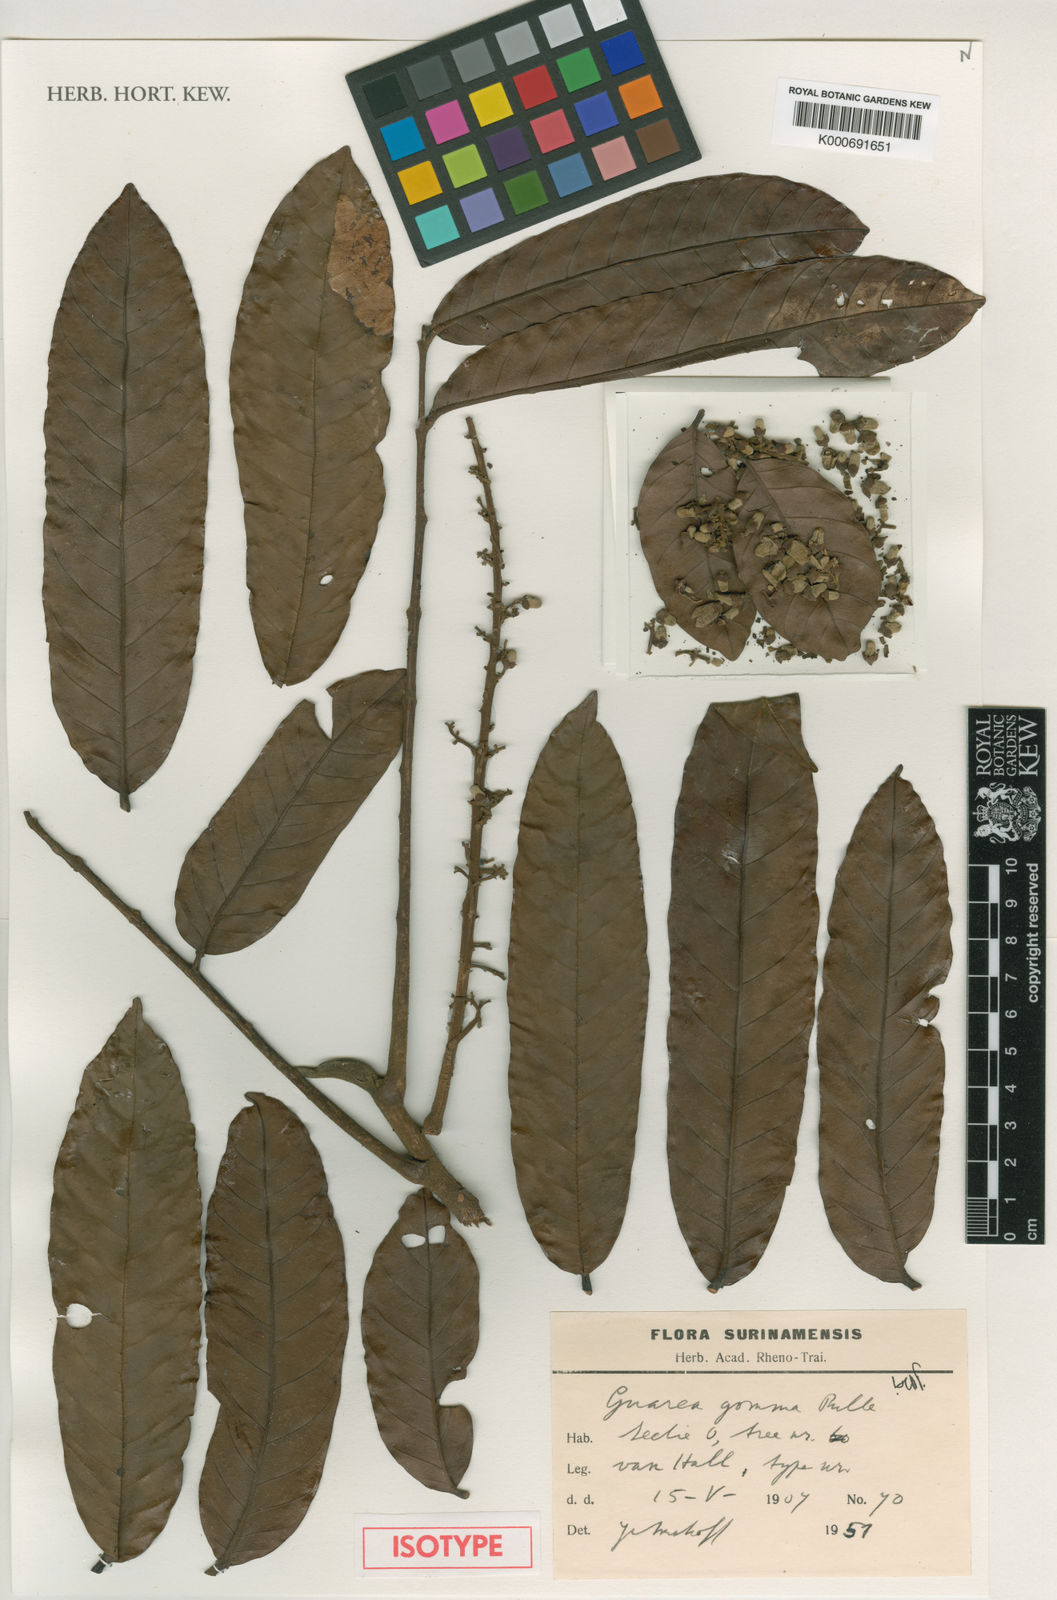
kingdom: Plantae
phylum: Tracheophyta
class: Magnoliopsida
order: Sapindales
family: Meliaceae
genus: Guarea
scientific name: Guarea gomma
